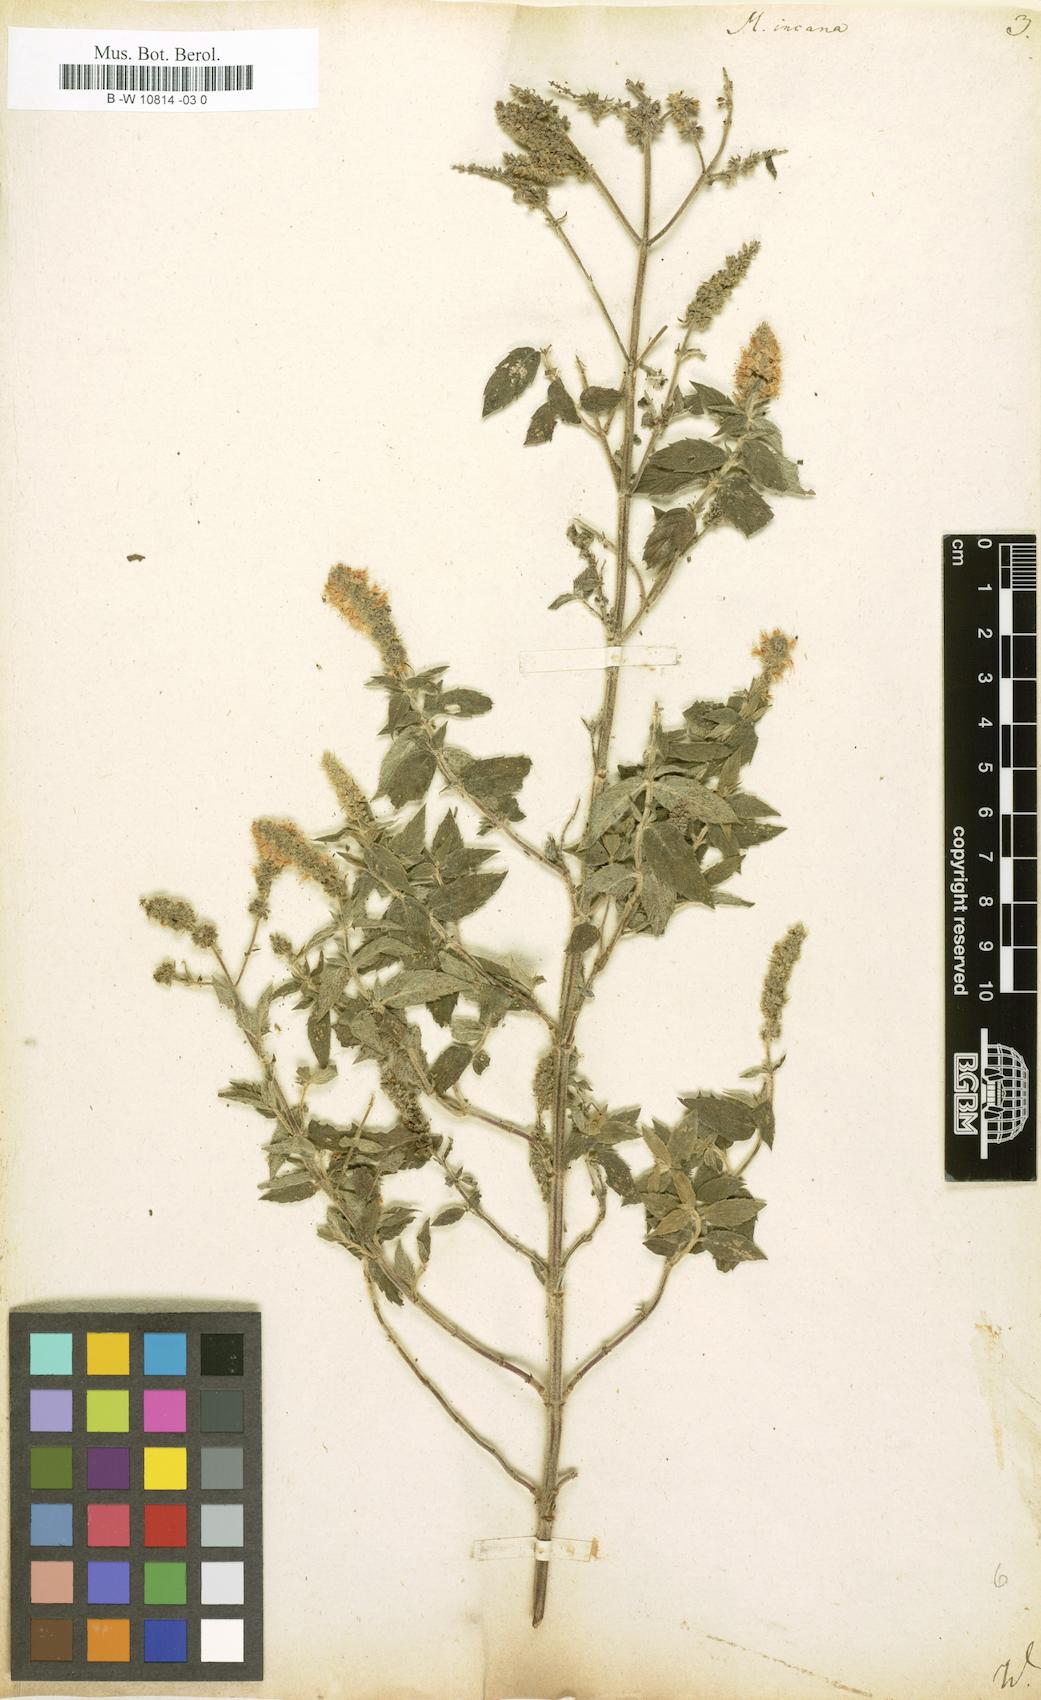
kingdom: Plantae
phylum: Tracheophyta
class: Magnoliopsida
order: Lamiales
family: Lamiaceae
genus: Mentha
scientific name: Mentha longifolia
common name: Horse mint
